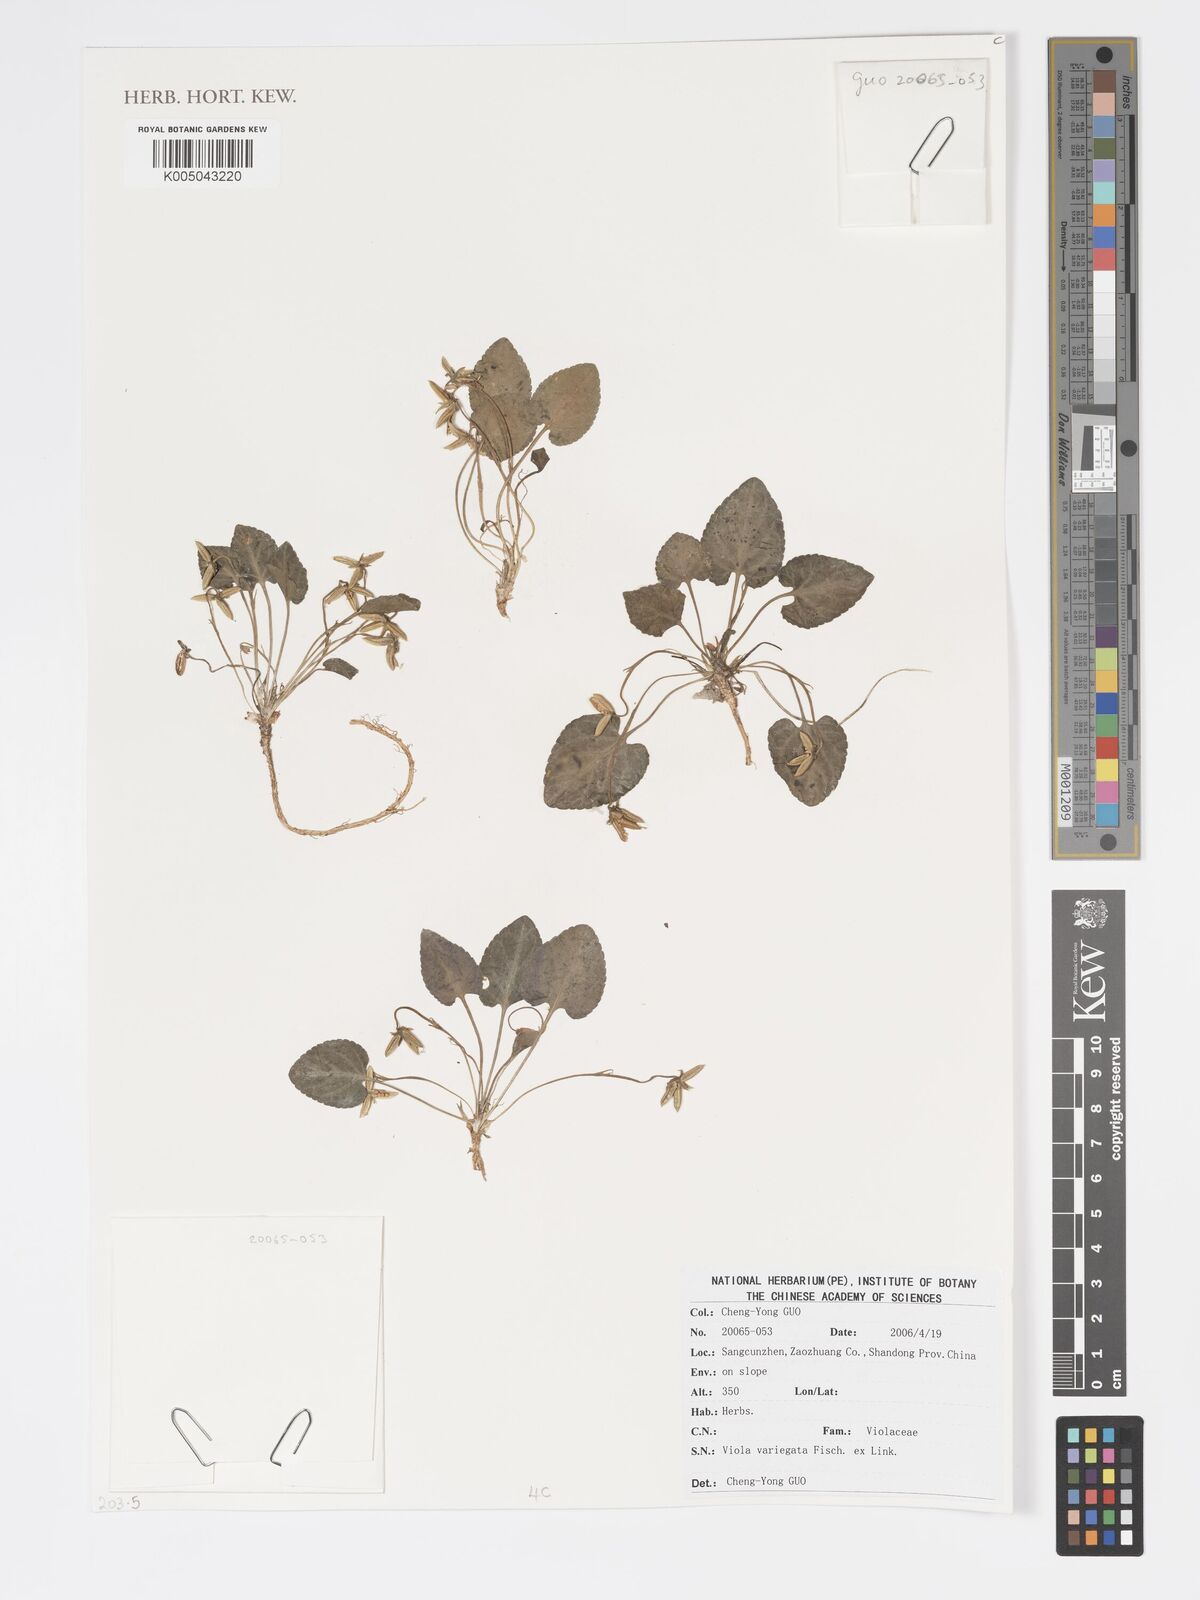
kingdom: Plantae
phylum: Tracheophyta
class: Magnoliopsida
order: Malpighiales
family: Violaceae
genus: Viola
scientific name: Viola vaginata
